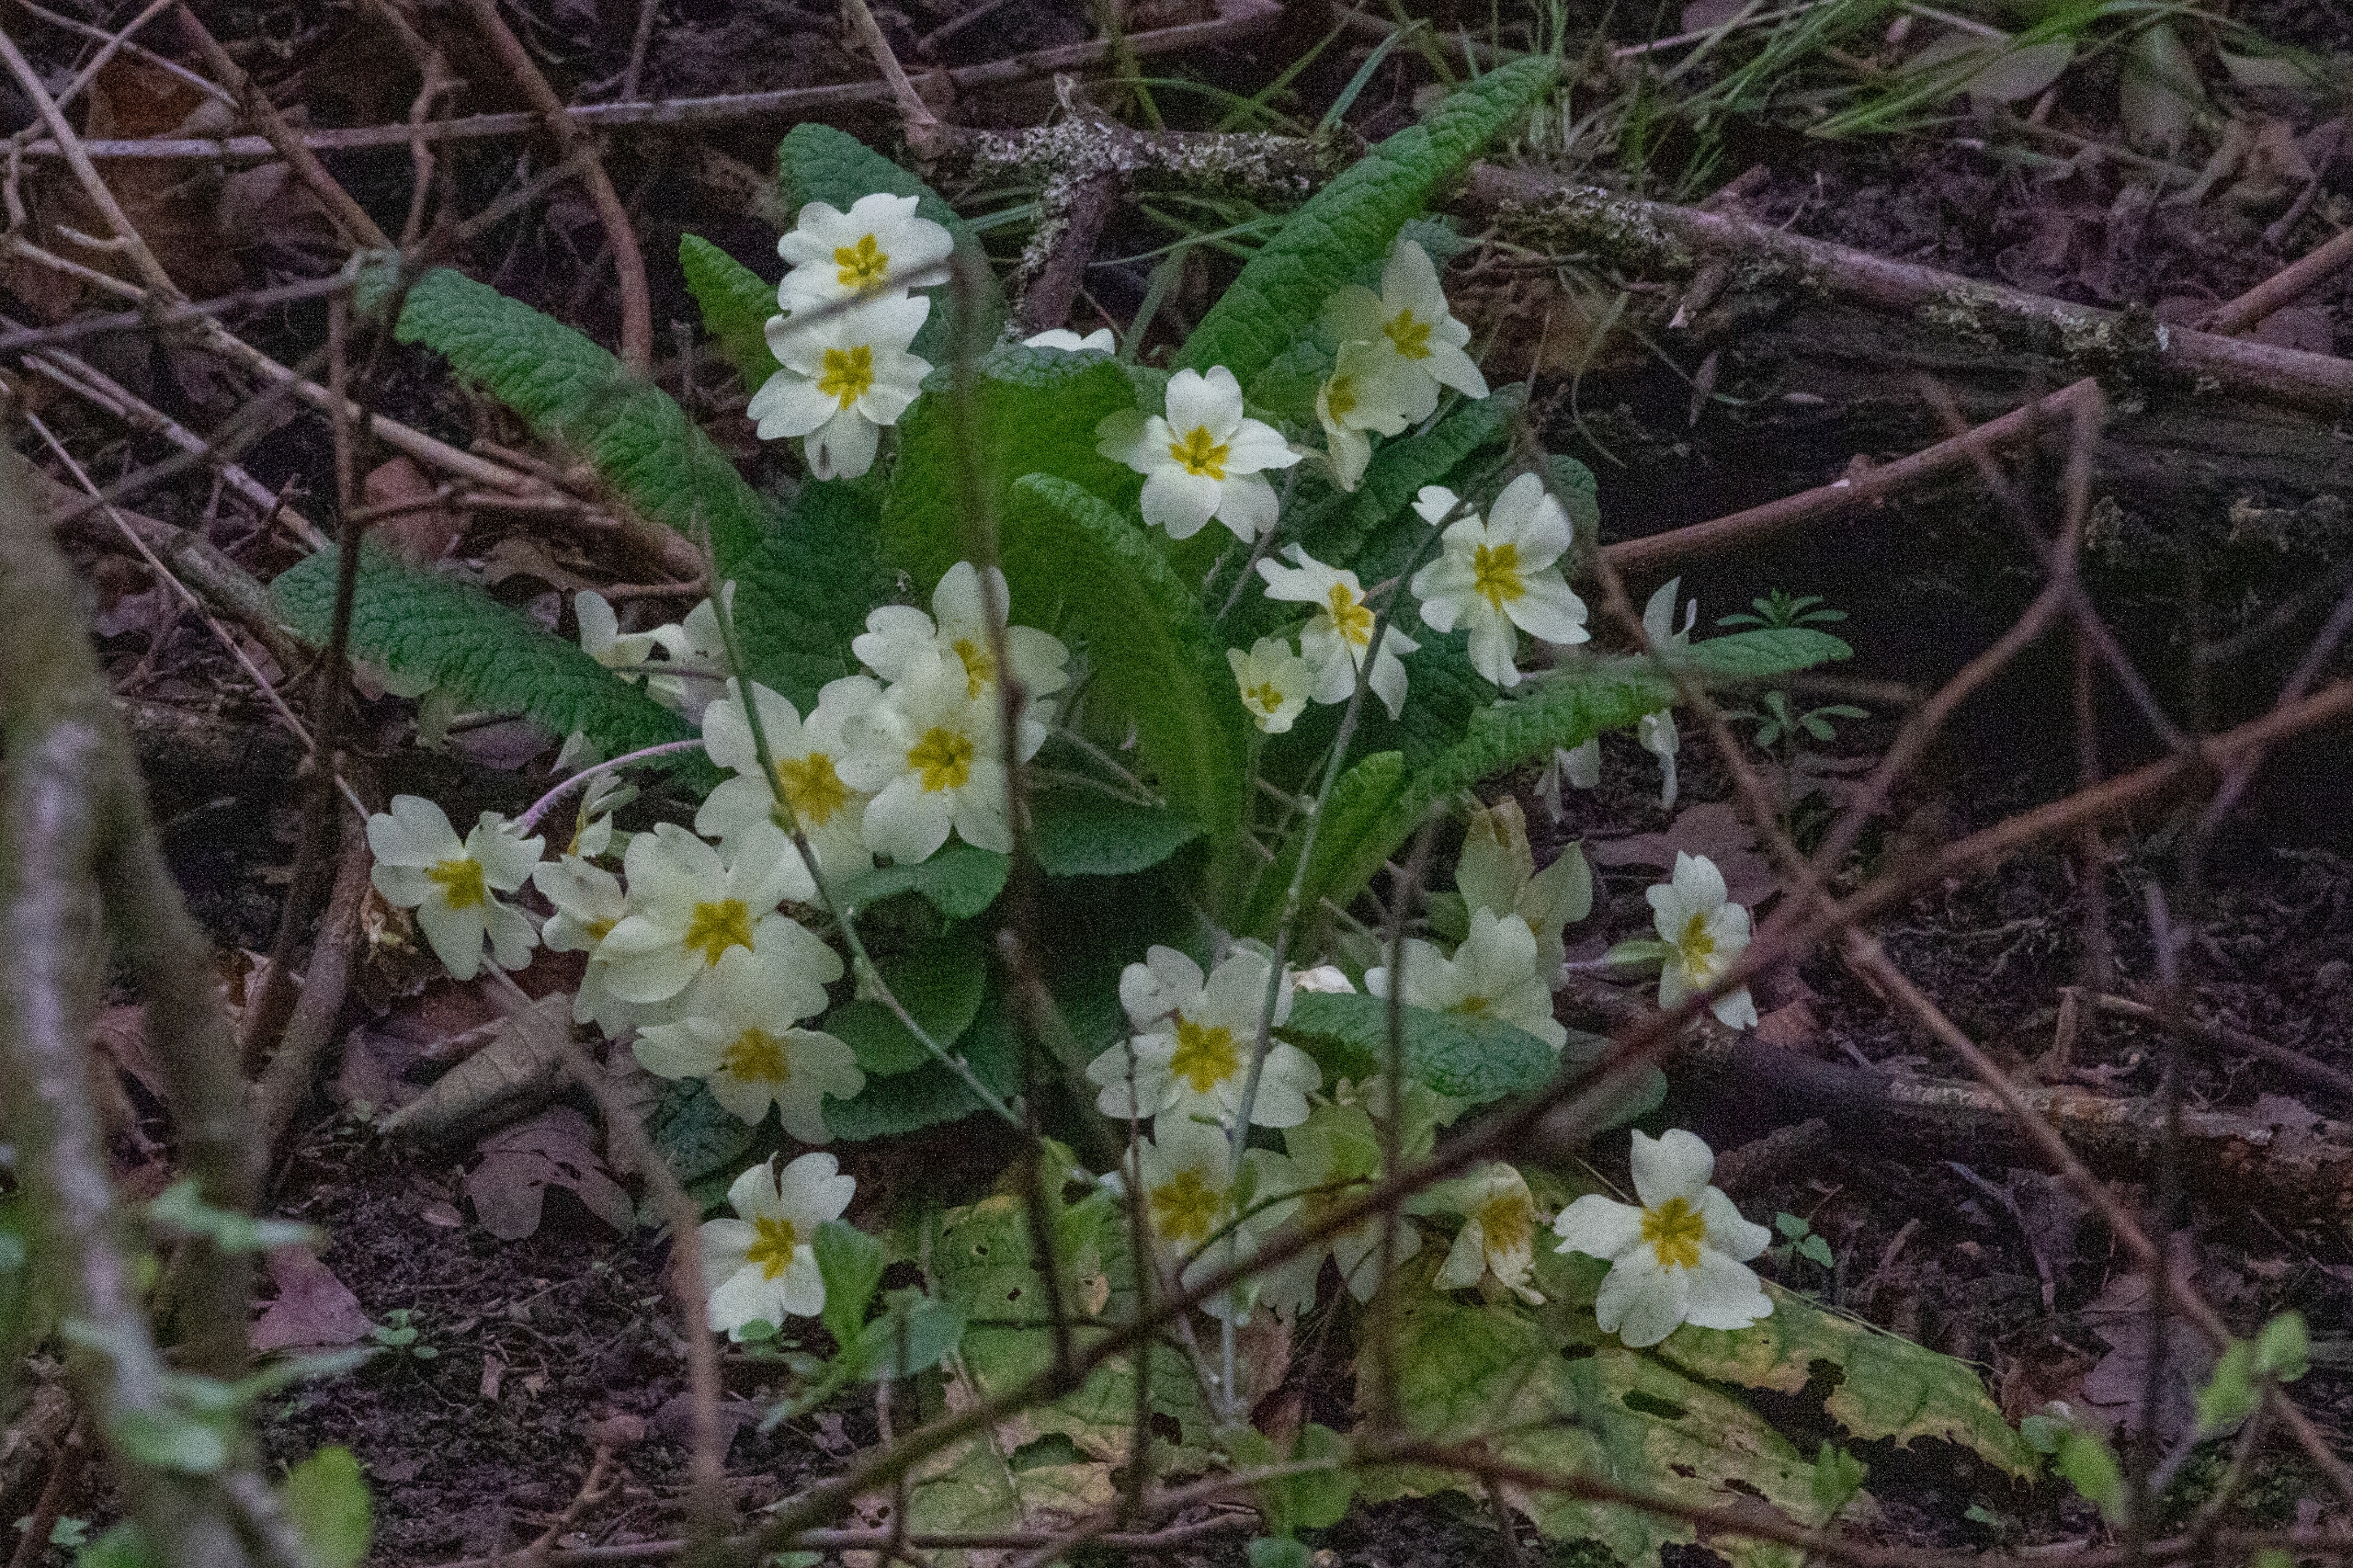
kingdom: Plantae
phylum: Tracheophyta
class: Magnoliopsida
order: Ericales
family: Primulaceae
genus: Primula
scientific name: Primula vulgaris
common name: Storblomstret kodriver
